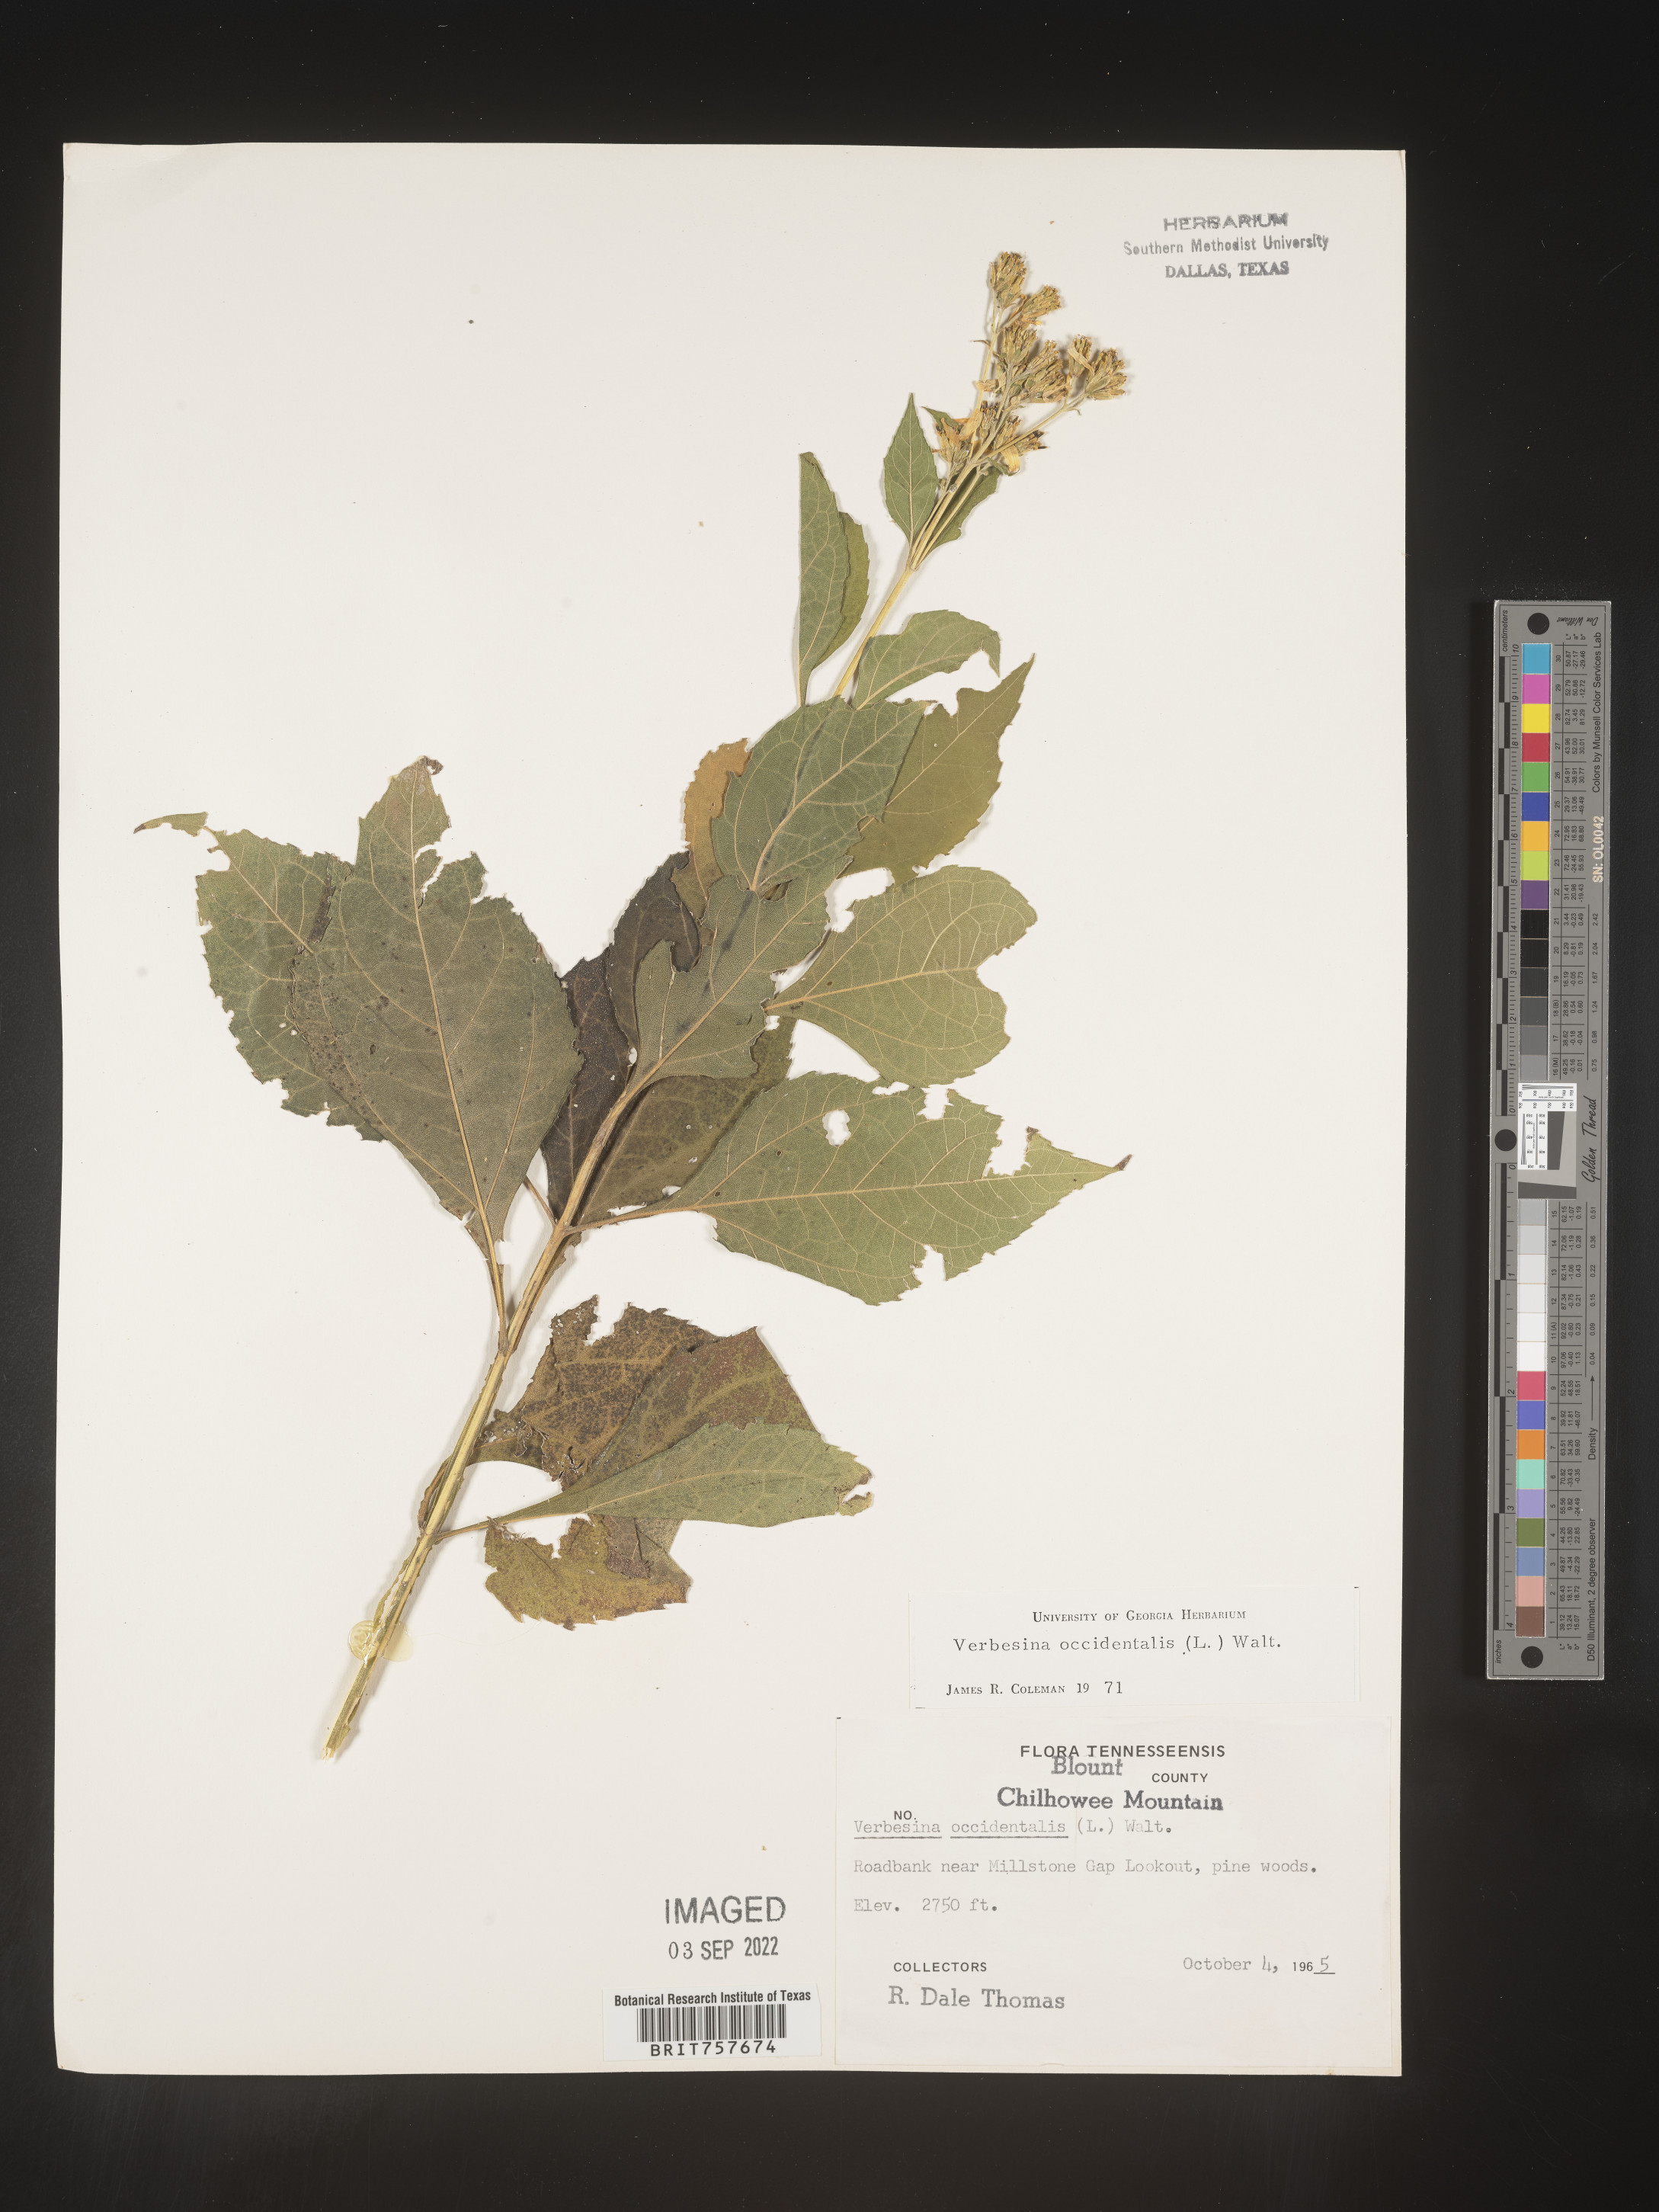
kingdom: Plantae
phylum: Tracheophyta
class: Magnoliopsida
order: Asterales
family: Asteraceae
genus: Verbesina
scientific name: Verbesina occidentalis
